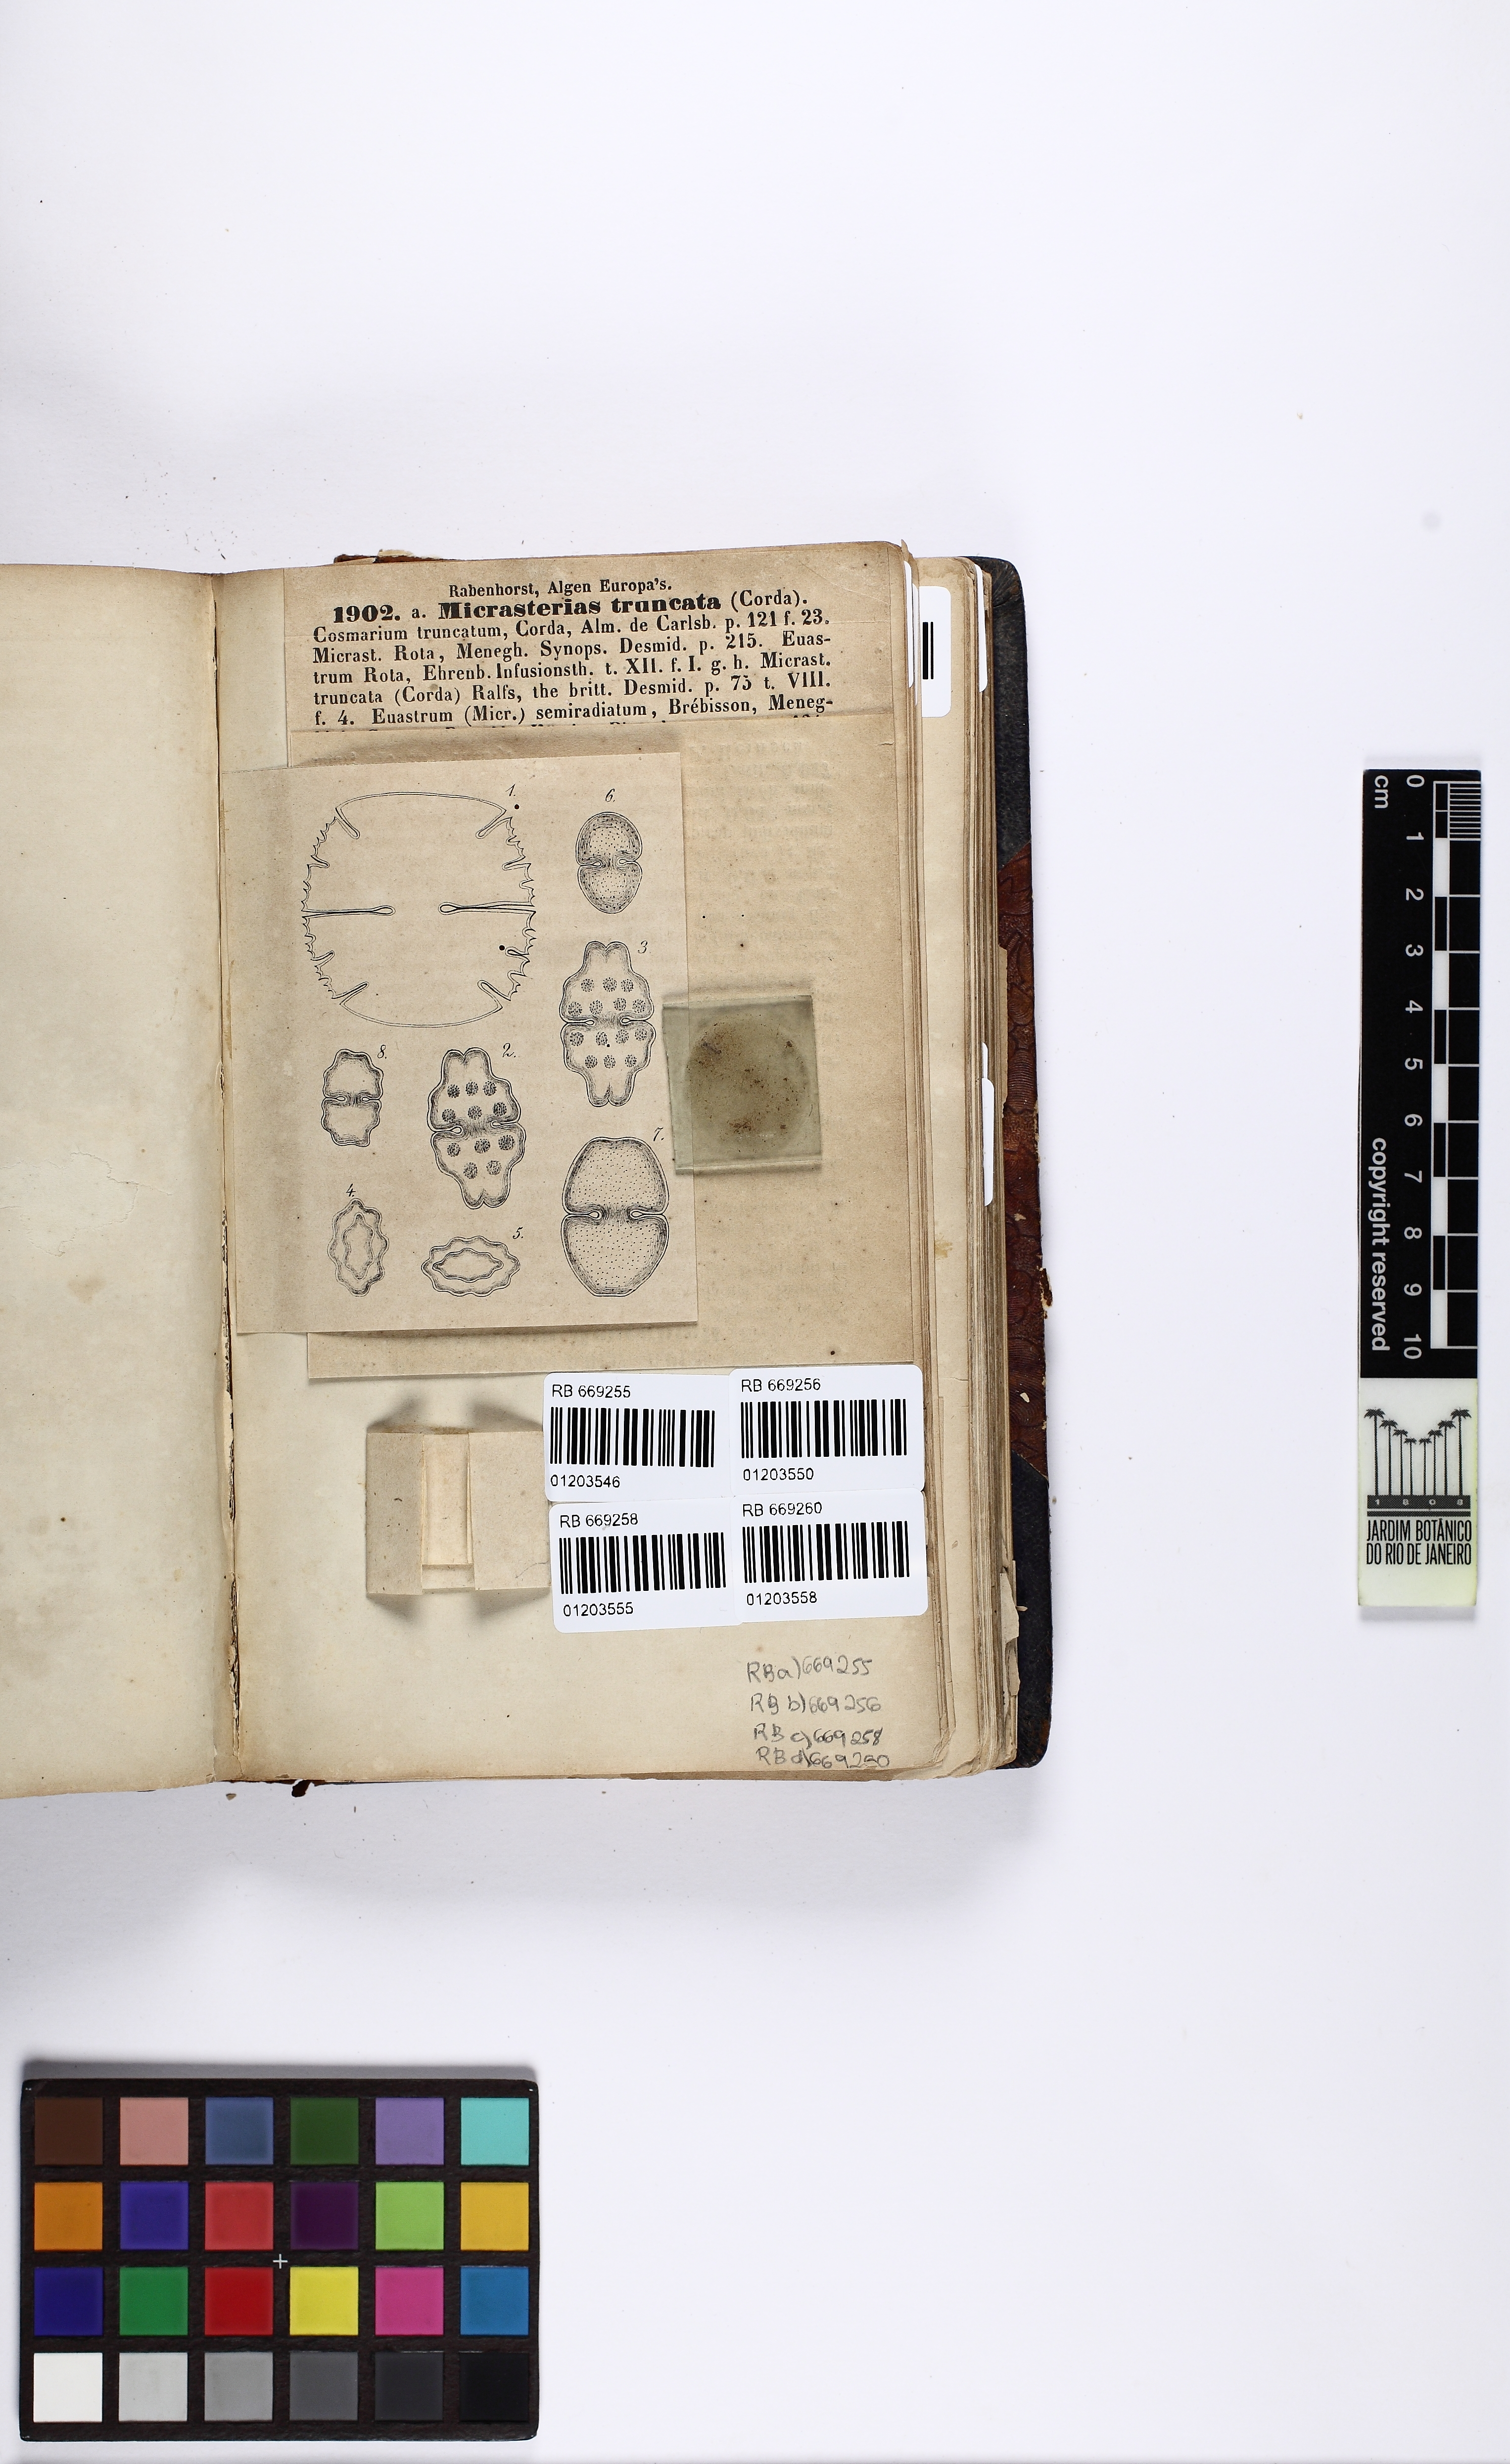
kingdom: Plantae
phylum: Charophyta
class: Conjugatophyceae
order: Desmidiales
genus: Euastrum
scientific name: Euastrum circulare
